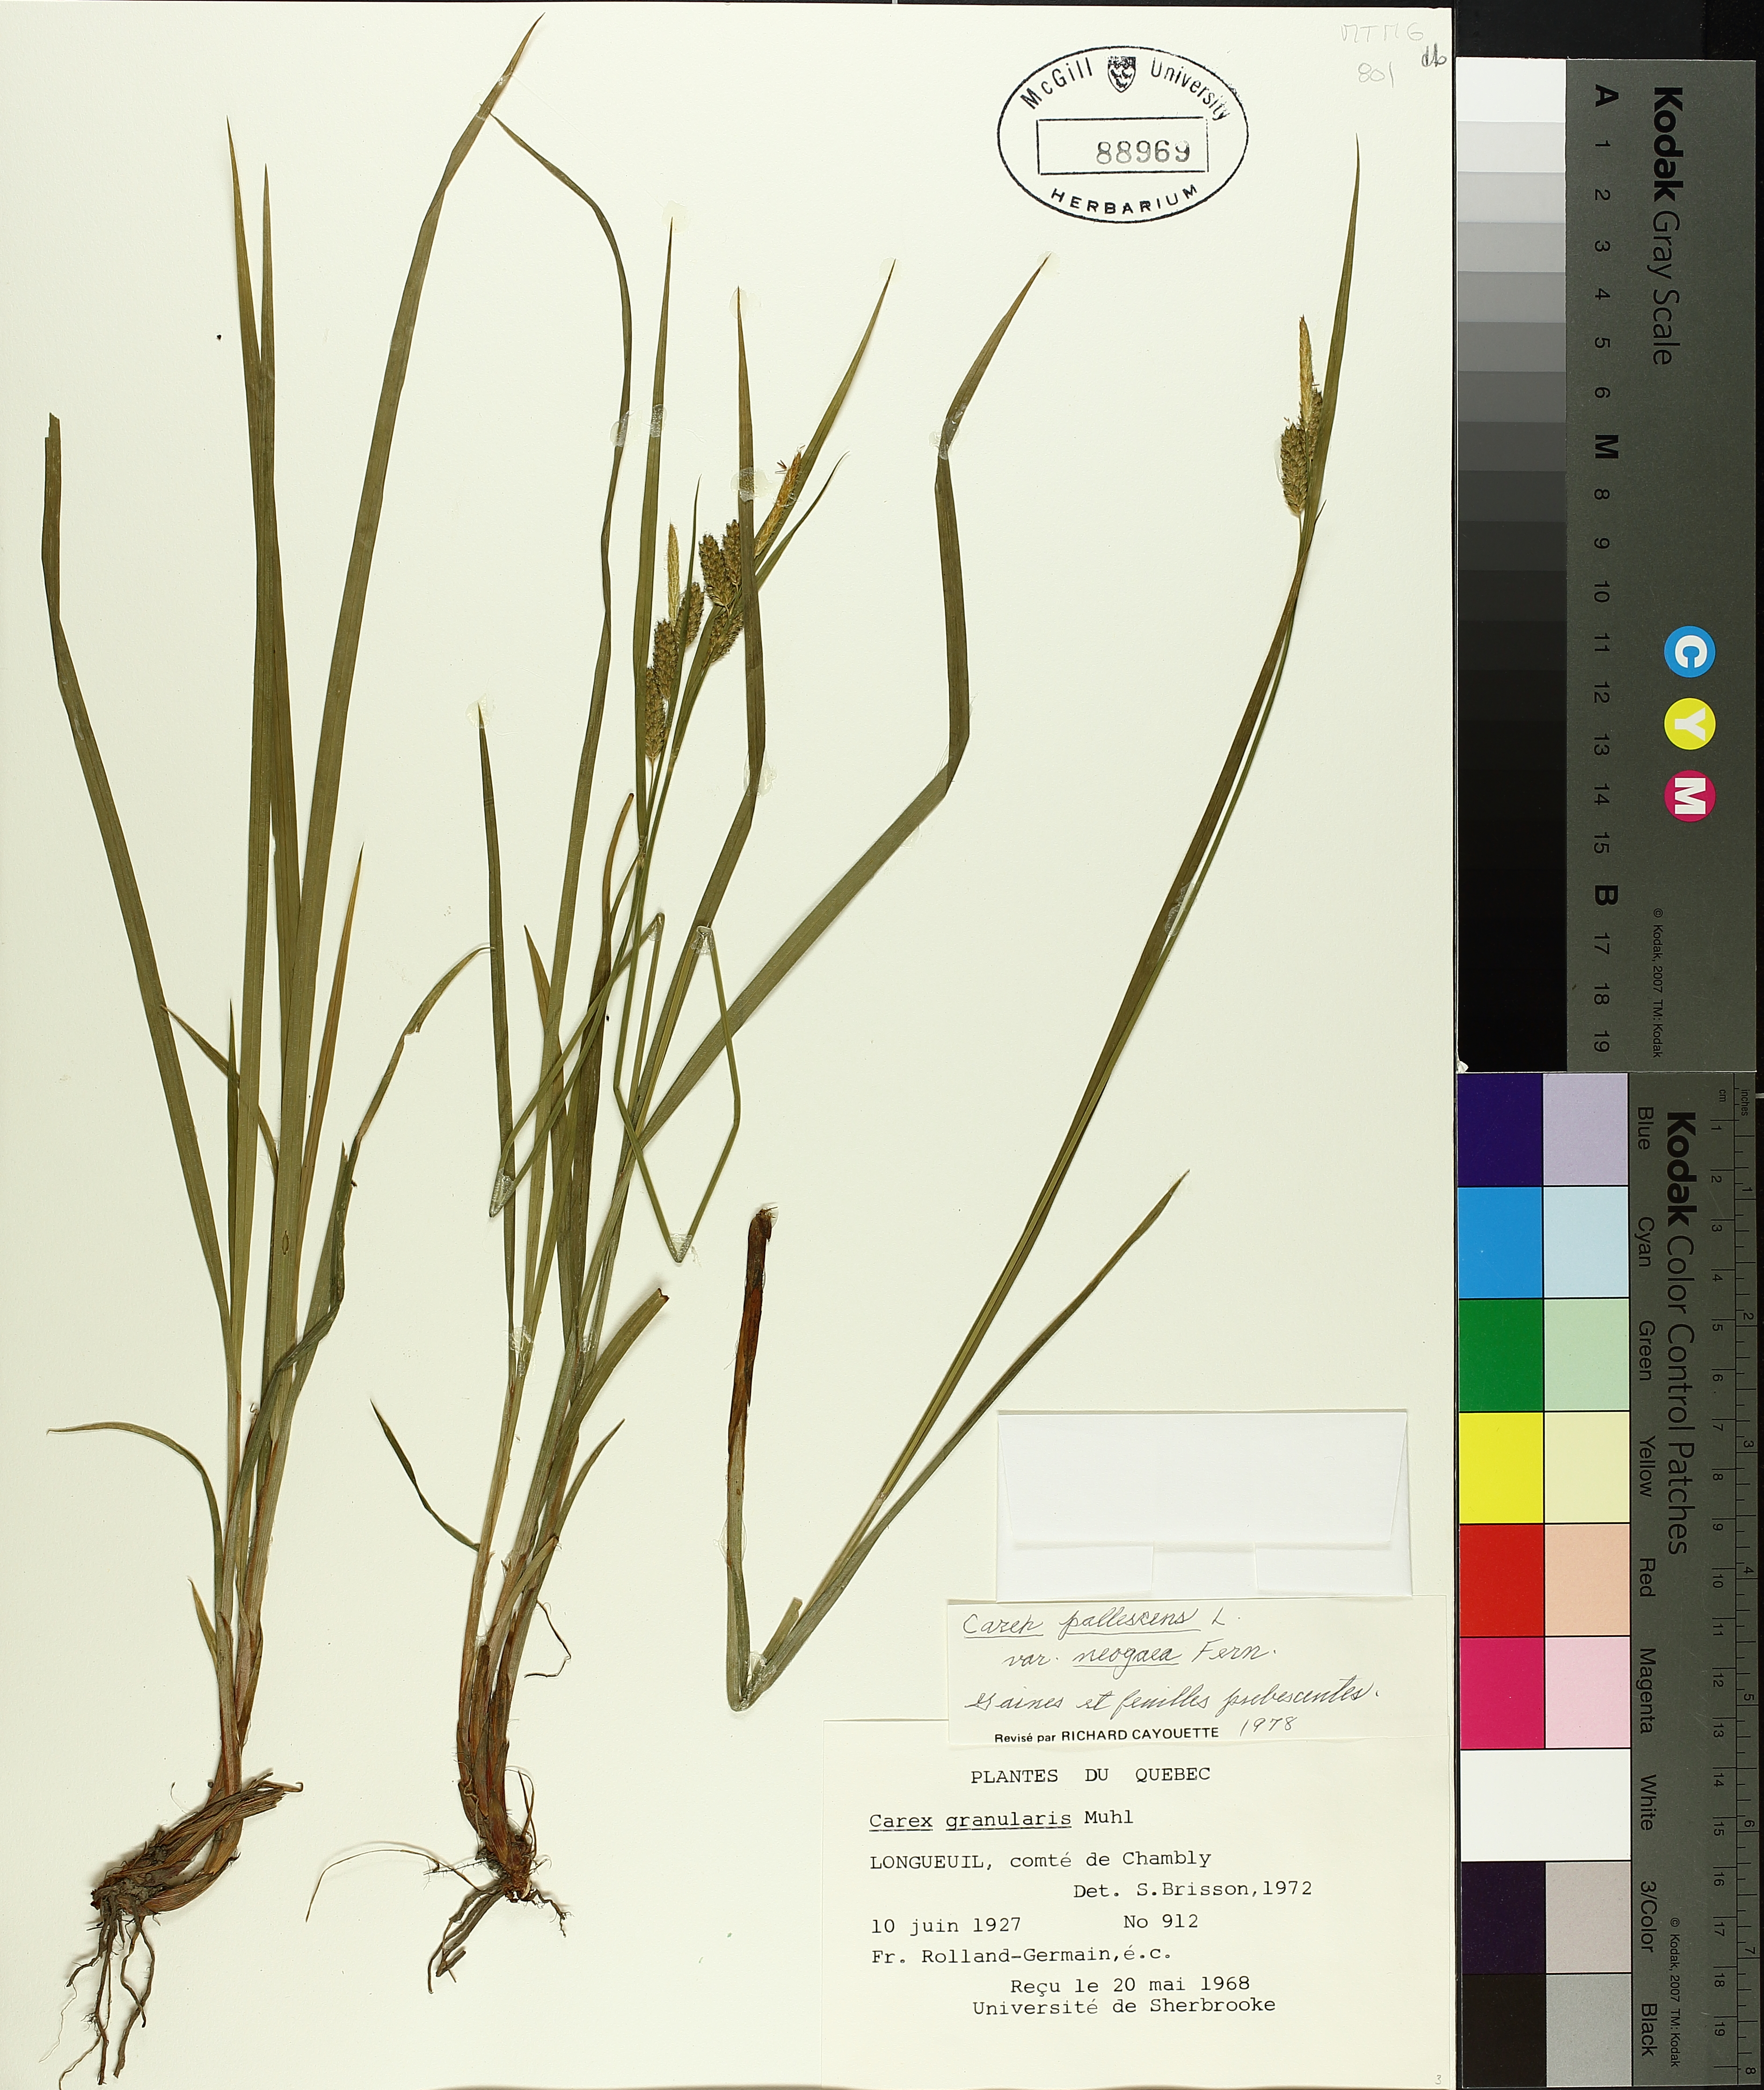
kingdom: Plantae
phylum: Tracheophyta
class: Liliopsida
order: Poales
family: Cyperaceae
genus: Carex
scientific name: Carex pallescens
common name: Pale sedge
